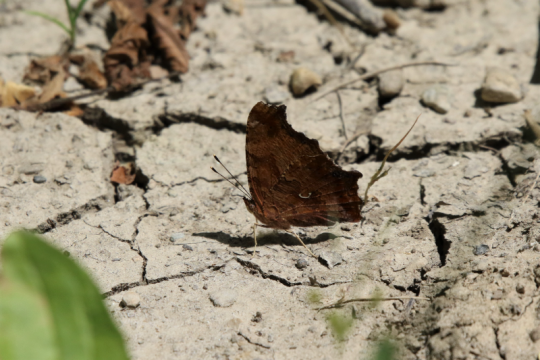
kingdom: Animalia
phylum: Arthropoda
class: Insecta
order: Lepidoptera
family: Nymphalidae
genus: Polygonia
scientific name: Polygonia comma
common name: Eastern Comma
